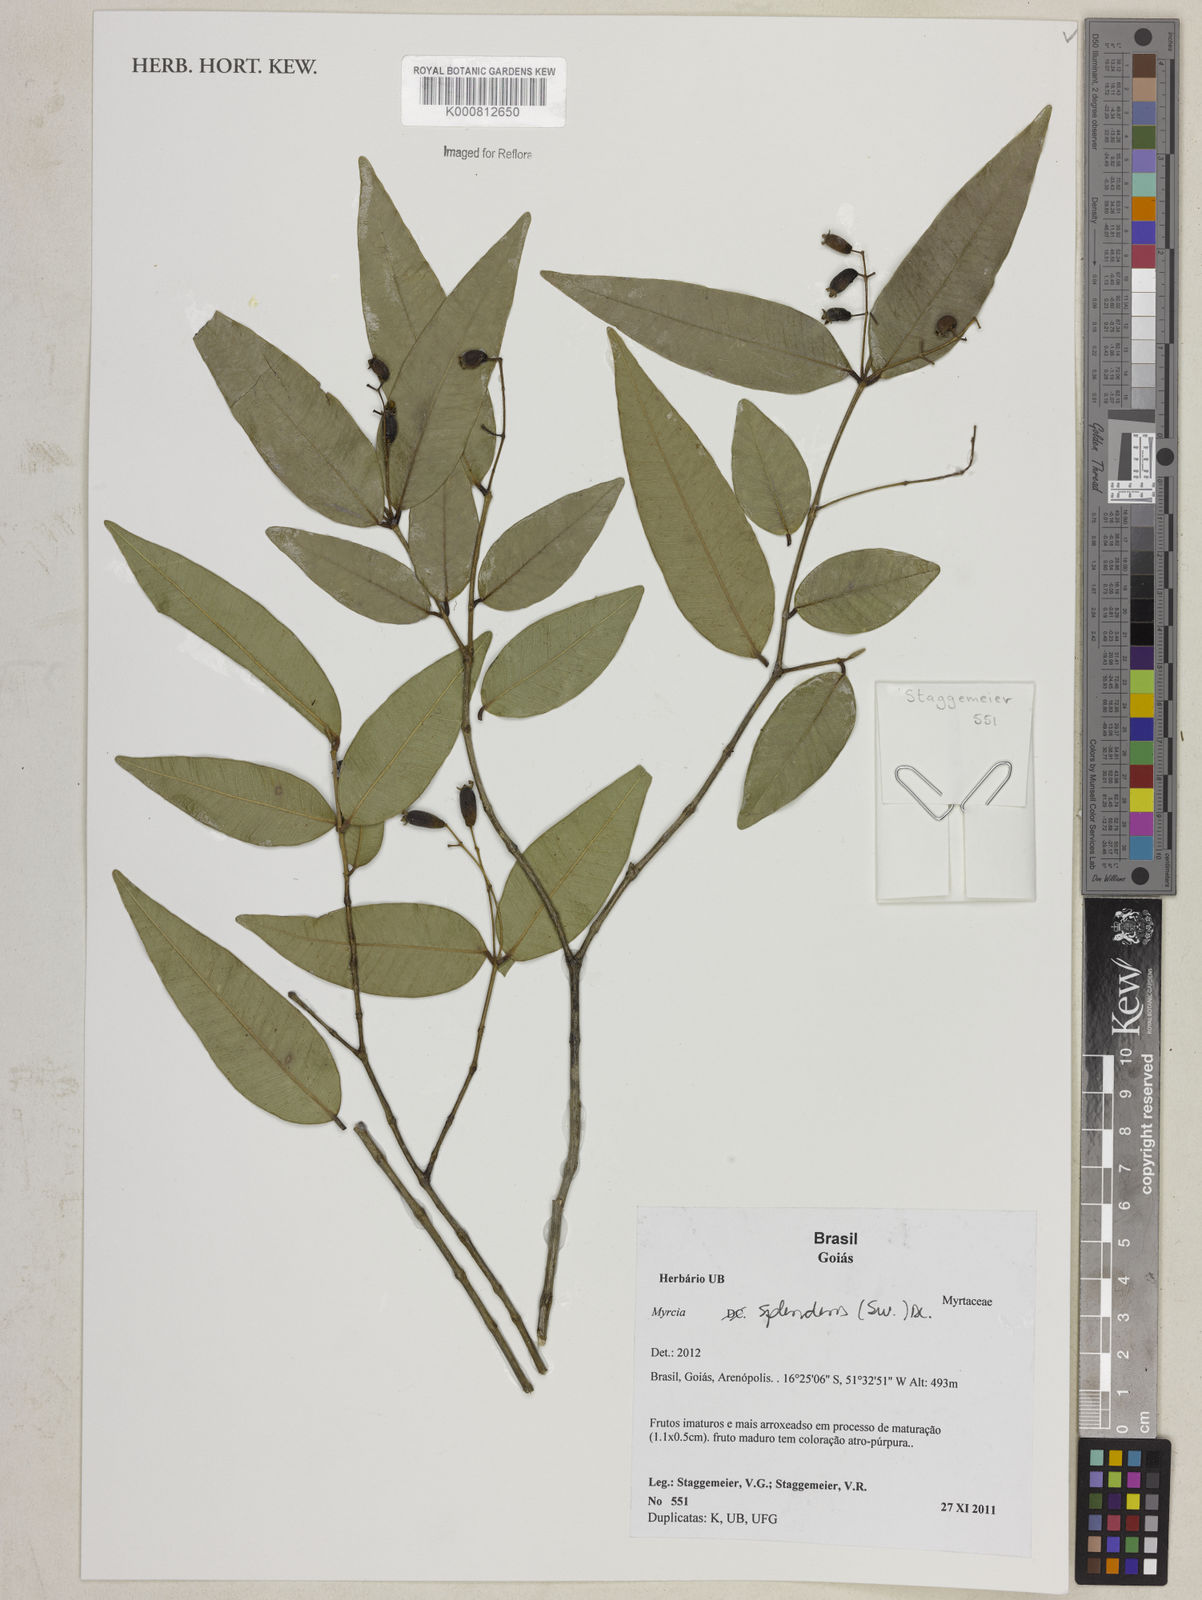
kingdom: Plantae
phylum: Tracheophyta
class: Magnoliopsida
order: Myrtales
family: Myrtaceae
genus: Myrcia
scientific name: Myrcia splendens
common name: Surinam cherry
